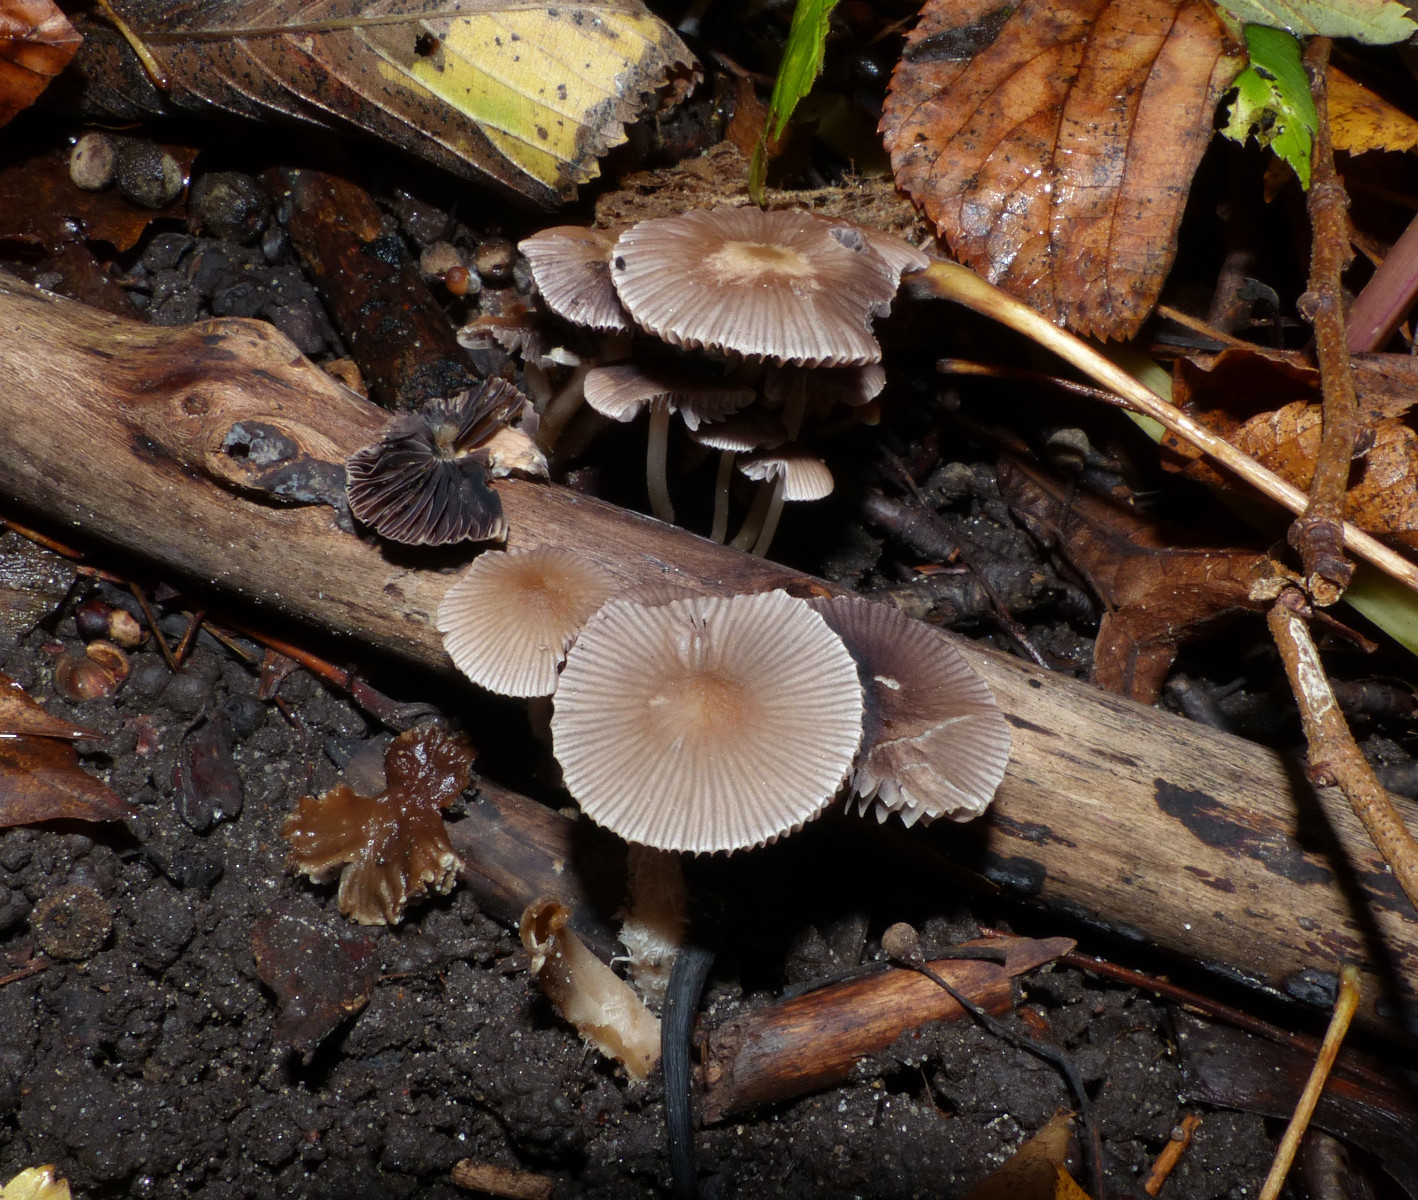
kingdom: Fungi
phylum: Basidiomycota
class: Agaricomycetes
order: Agaricales
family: Psathyrellaceae
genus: Psathyrella
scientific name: Psathyrella
